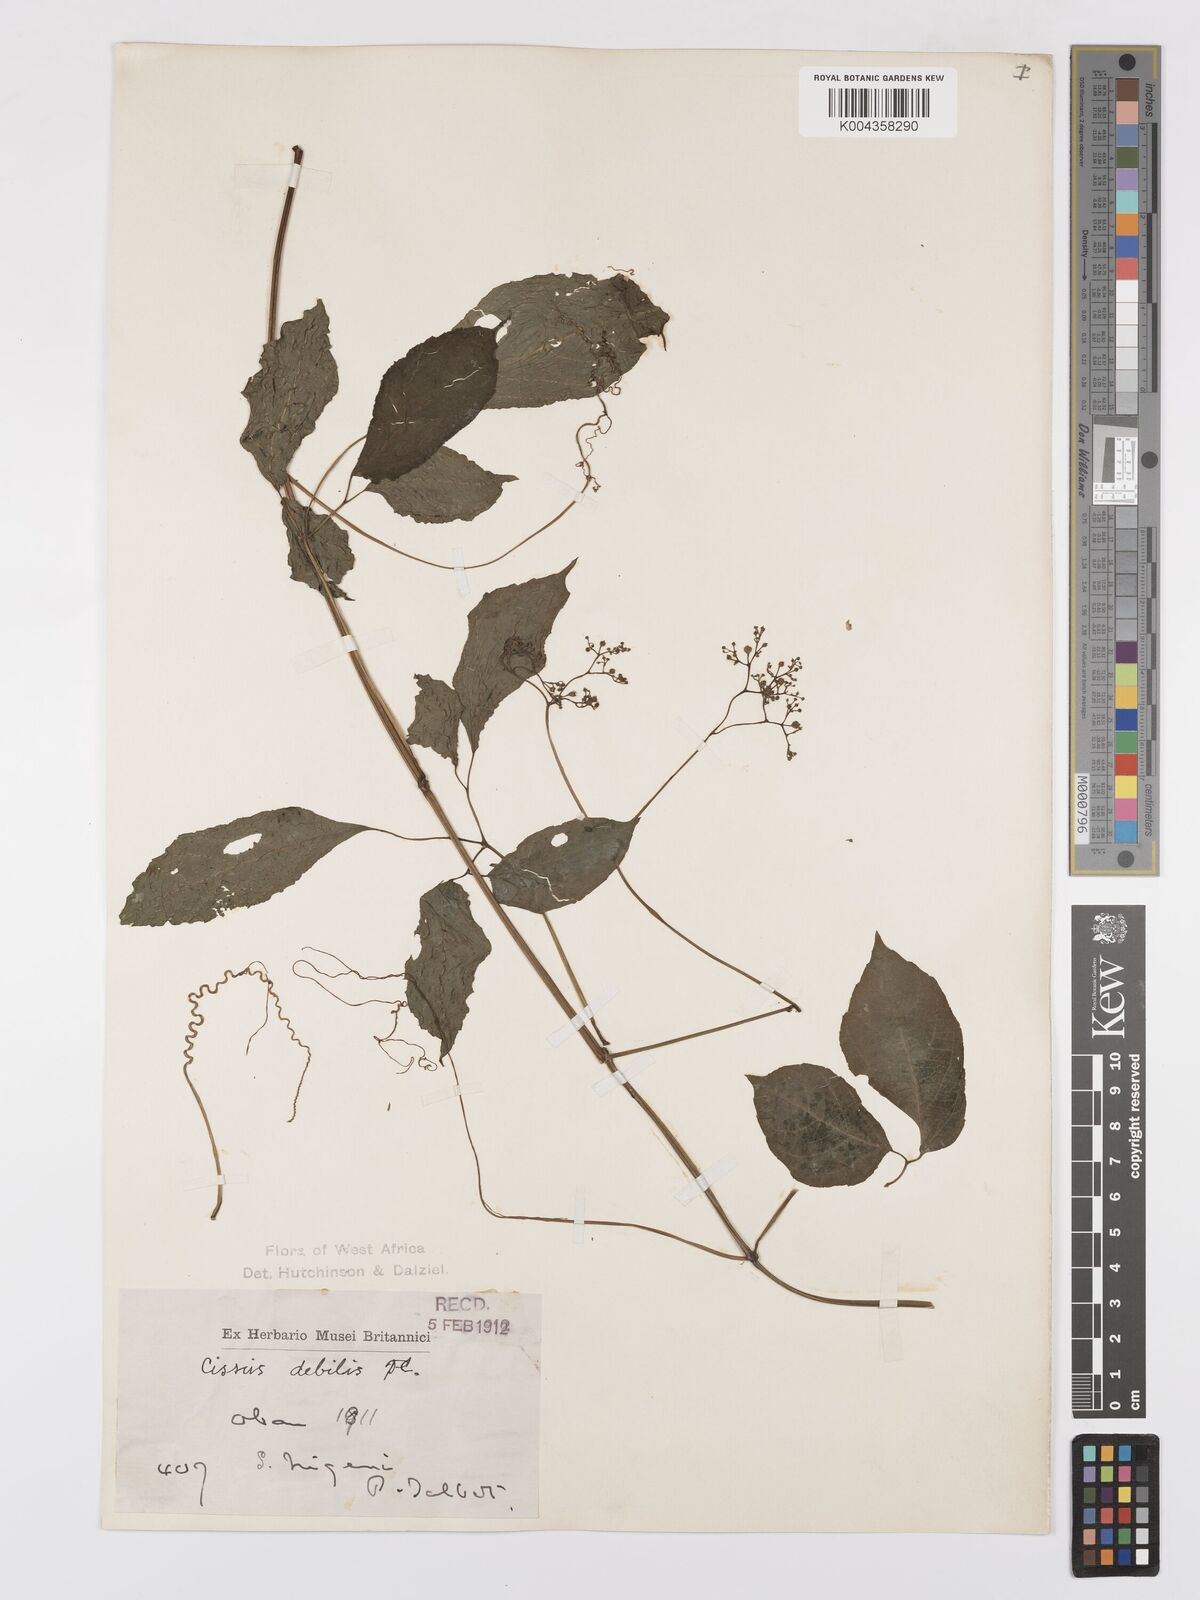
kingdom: Plantae
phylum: Tracheophyta
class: Magnoliopsida
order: Vitales
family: Vitaceae
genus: Afrocayratia
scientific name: Afrocayratia debilis
